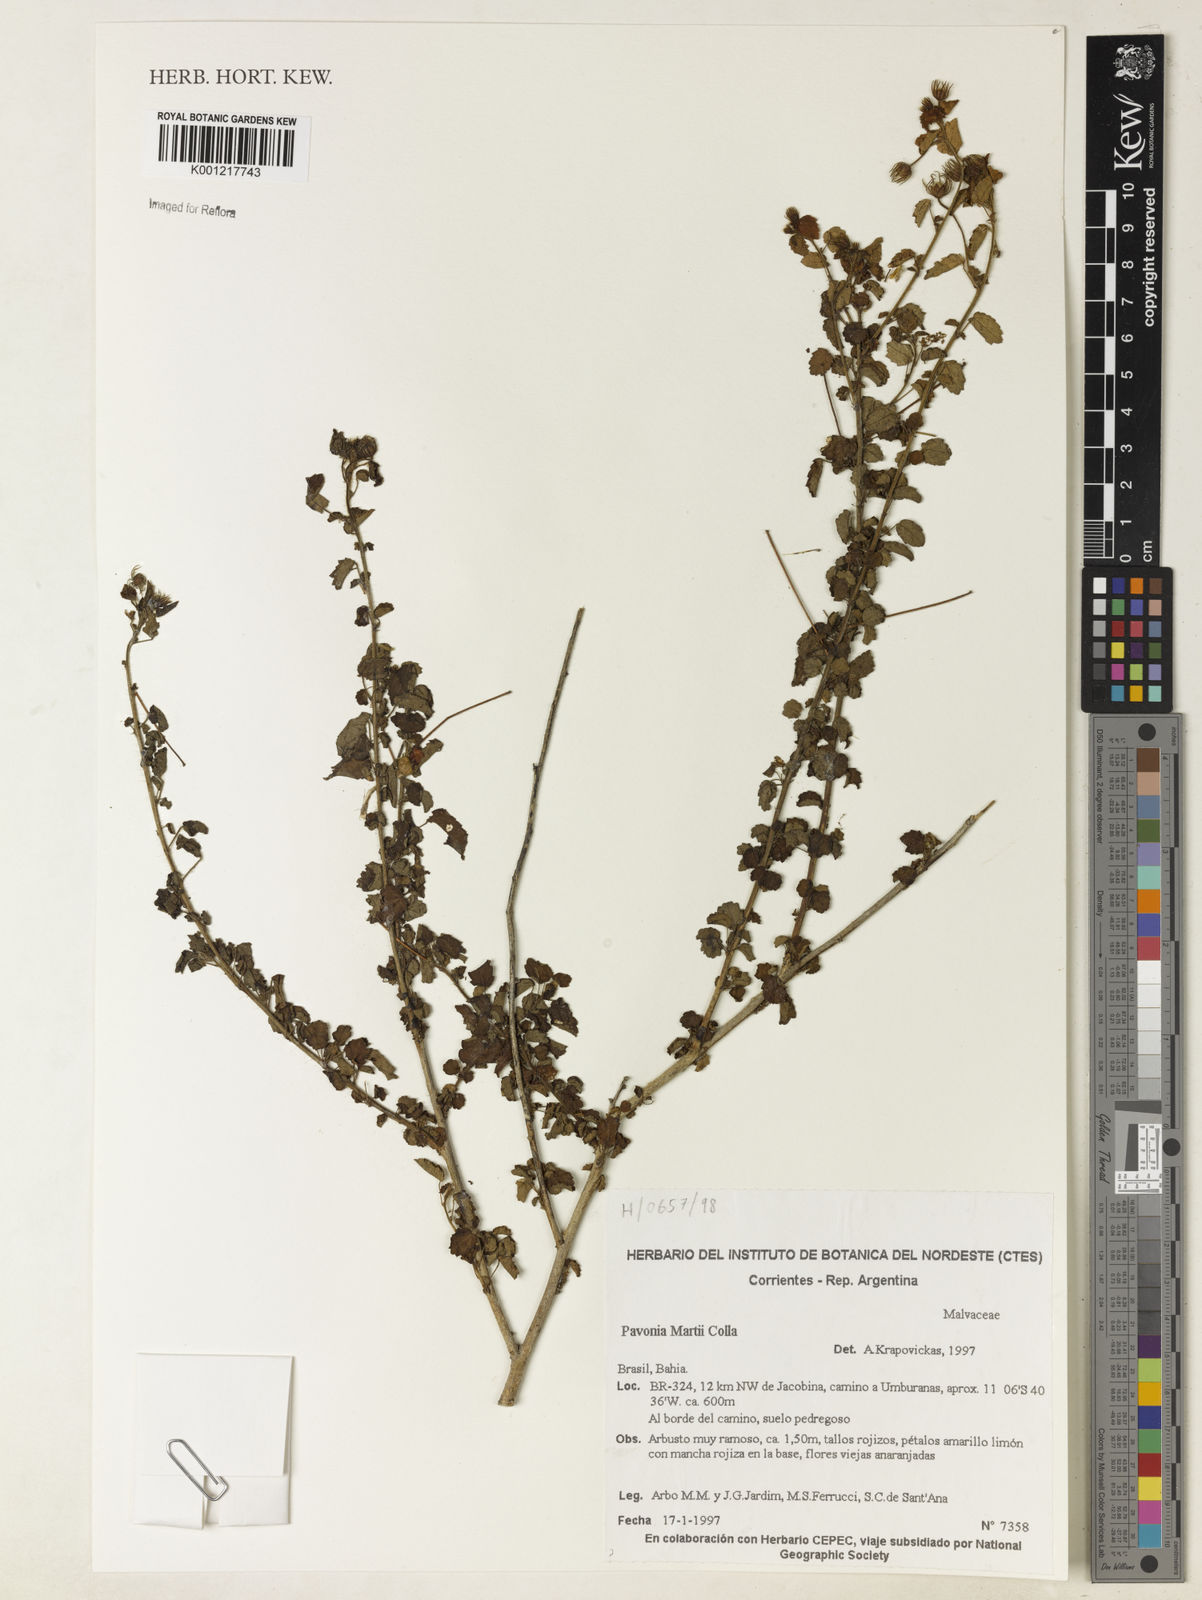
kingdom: Plantae
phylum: Tracheophyta
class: Magnoliopsida
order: Malvales
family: Malvaceae
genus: Pavonia
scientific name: Pavonia martii
